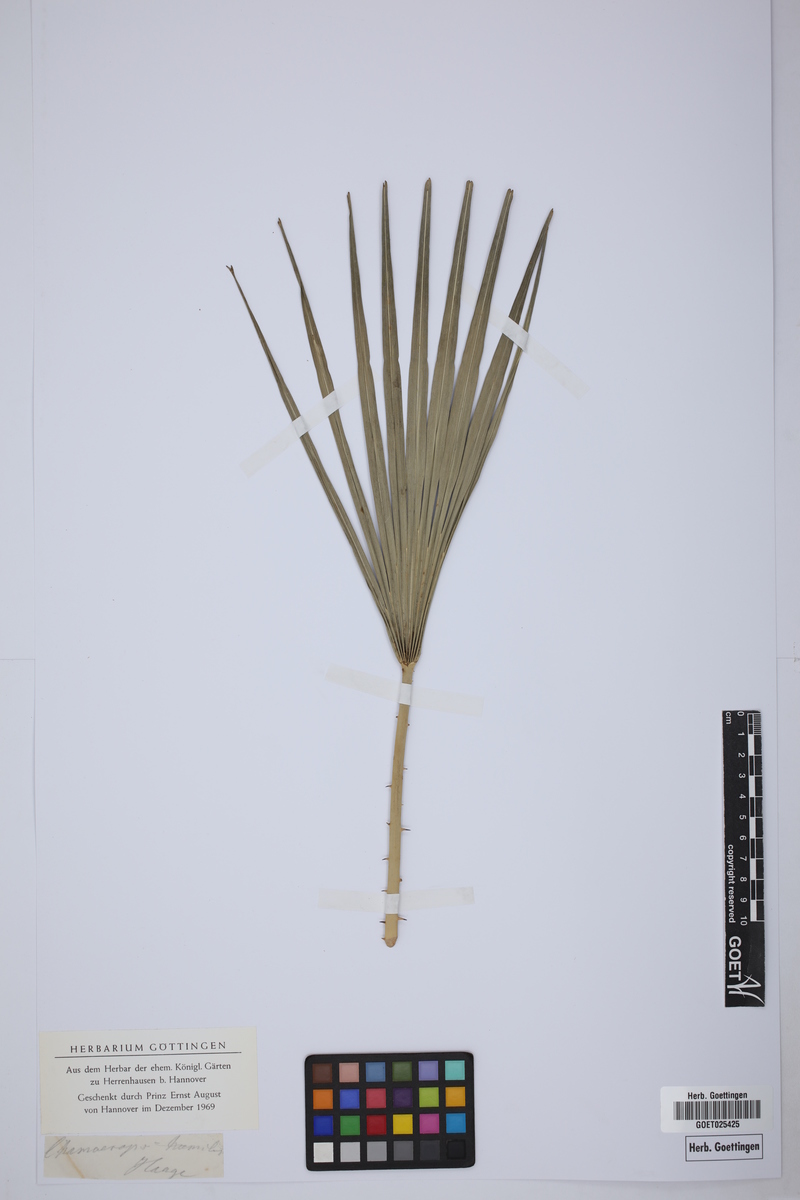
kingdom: Plantae
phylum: Tracheophyta
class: Liliopsida
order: Arecales
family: Arecaceae
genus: Chamaerops
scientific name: Chamaerops humilis
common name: Dwarf fan palm
